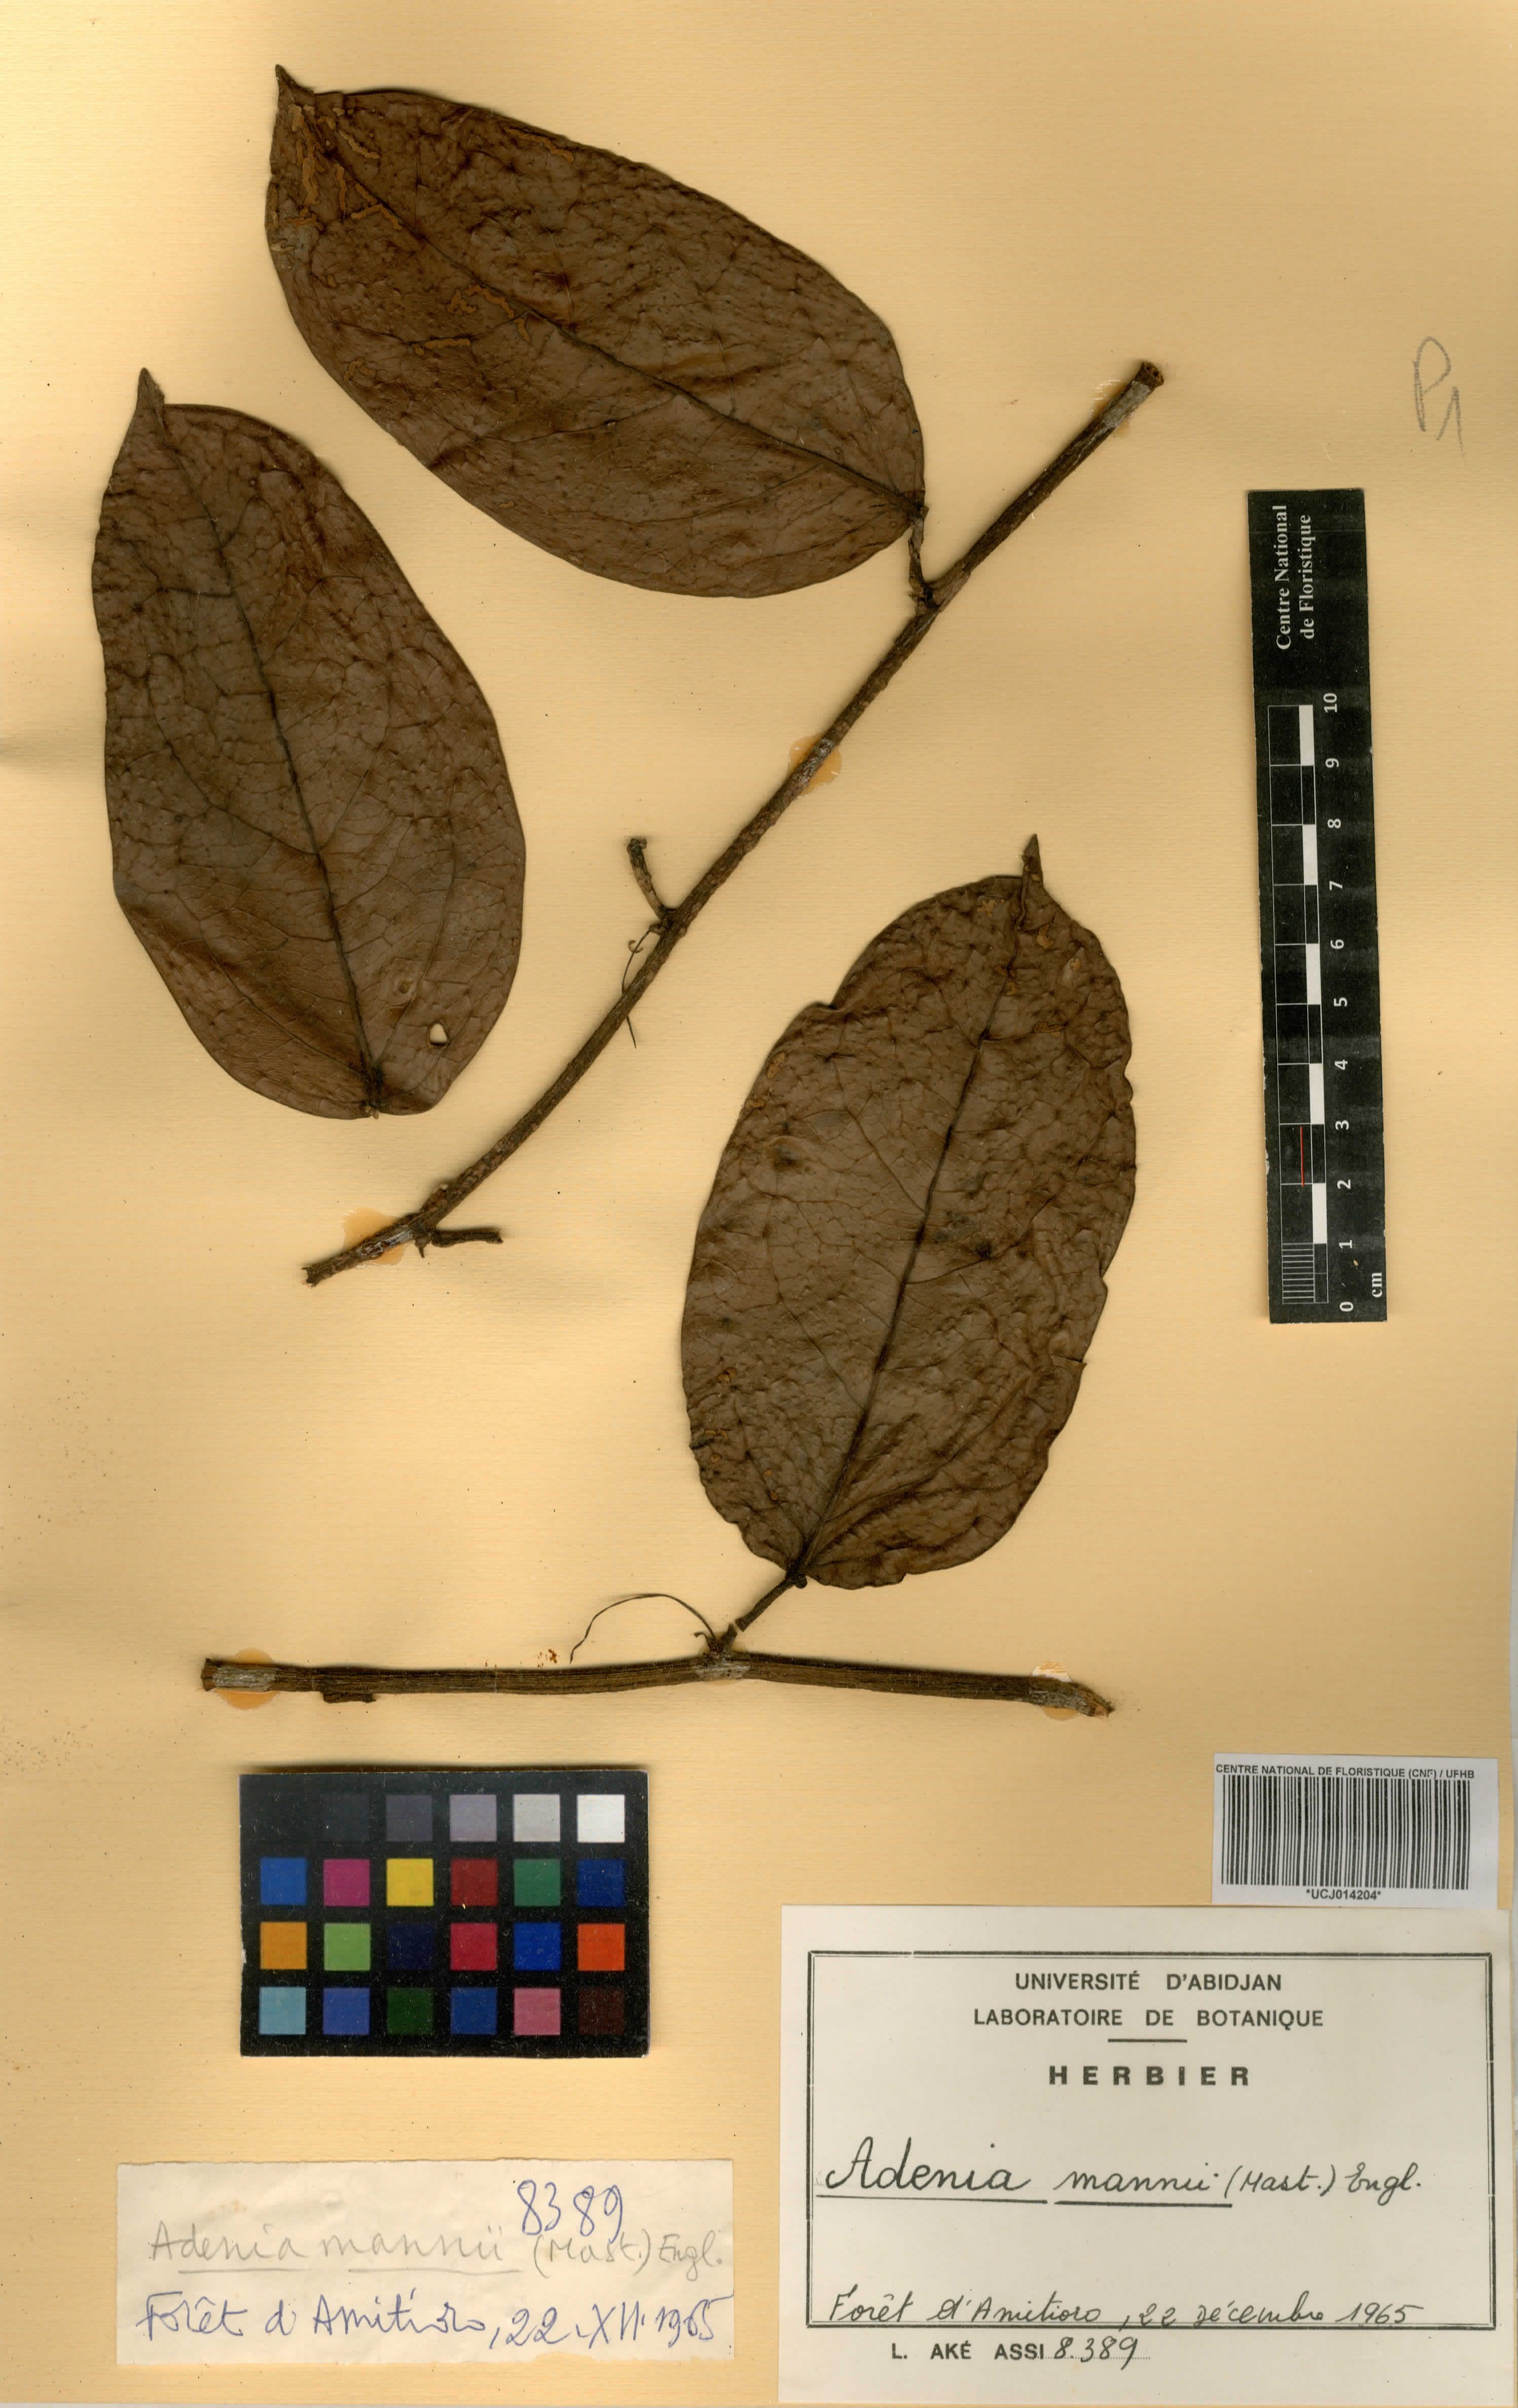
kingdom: Plantae
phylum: Tracheophyta
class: Magnoliopsida
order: Malpighiales
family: Passifloraceae
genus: Adenia
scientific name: Adenia mannii
